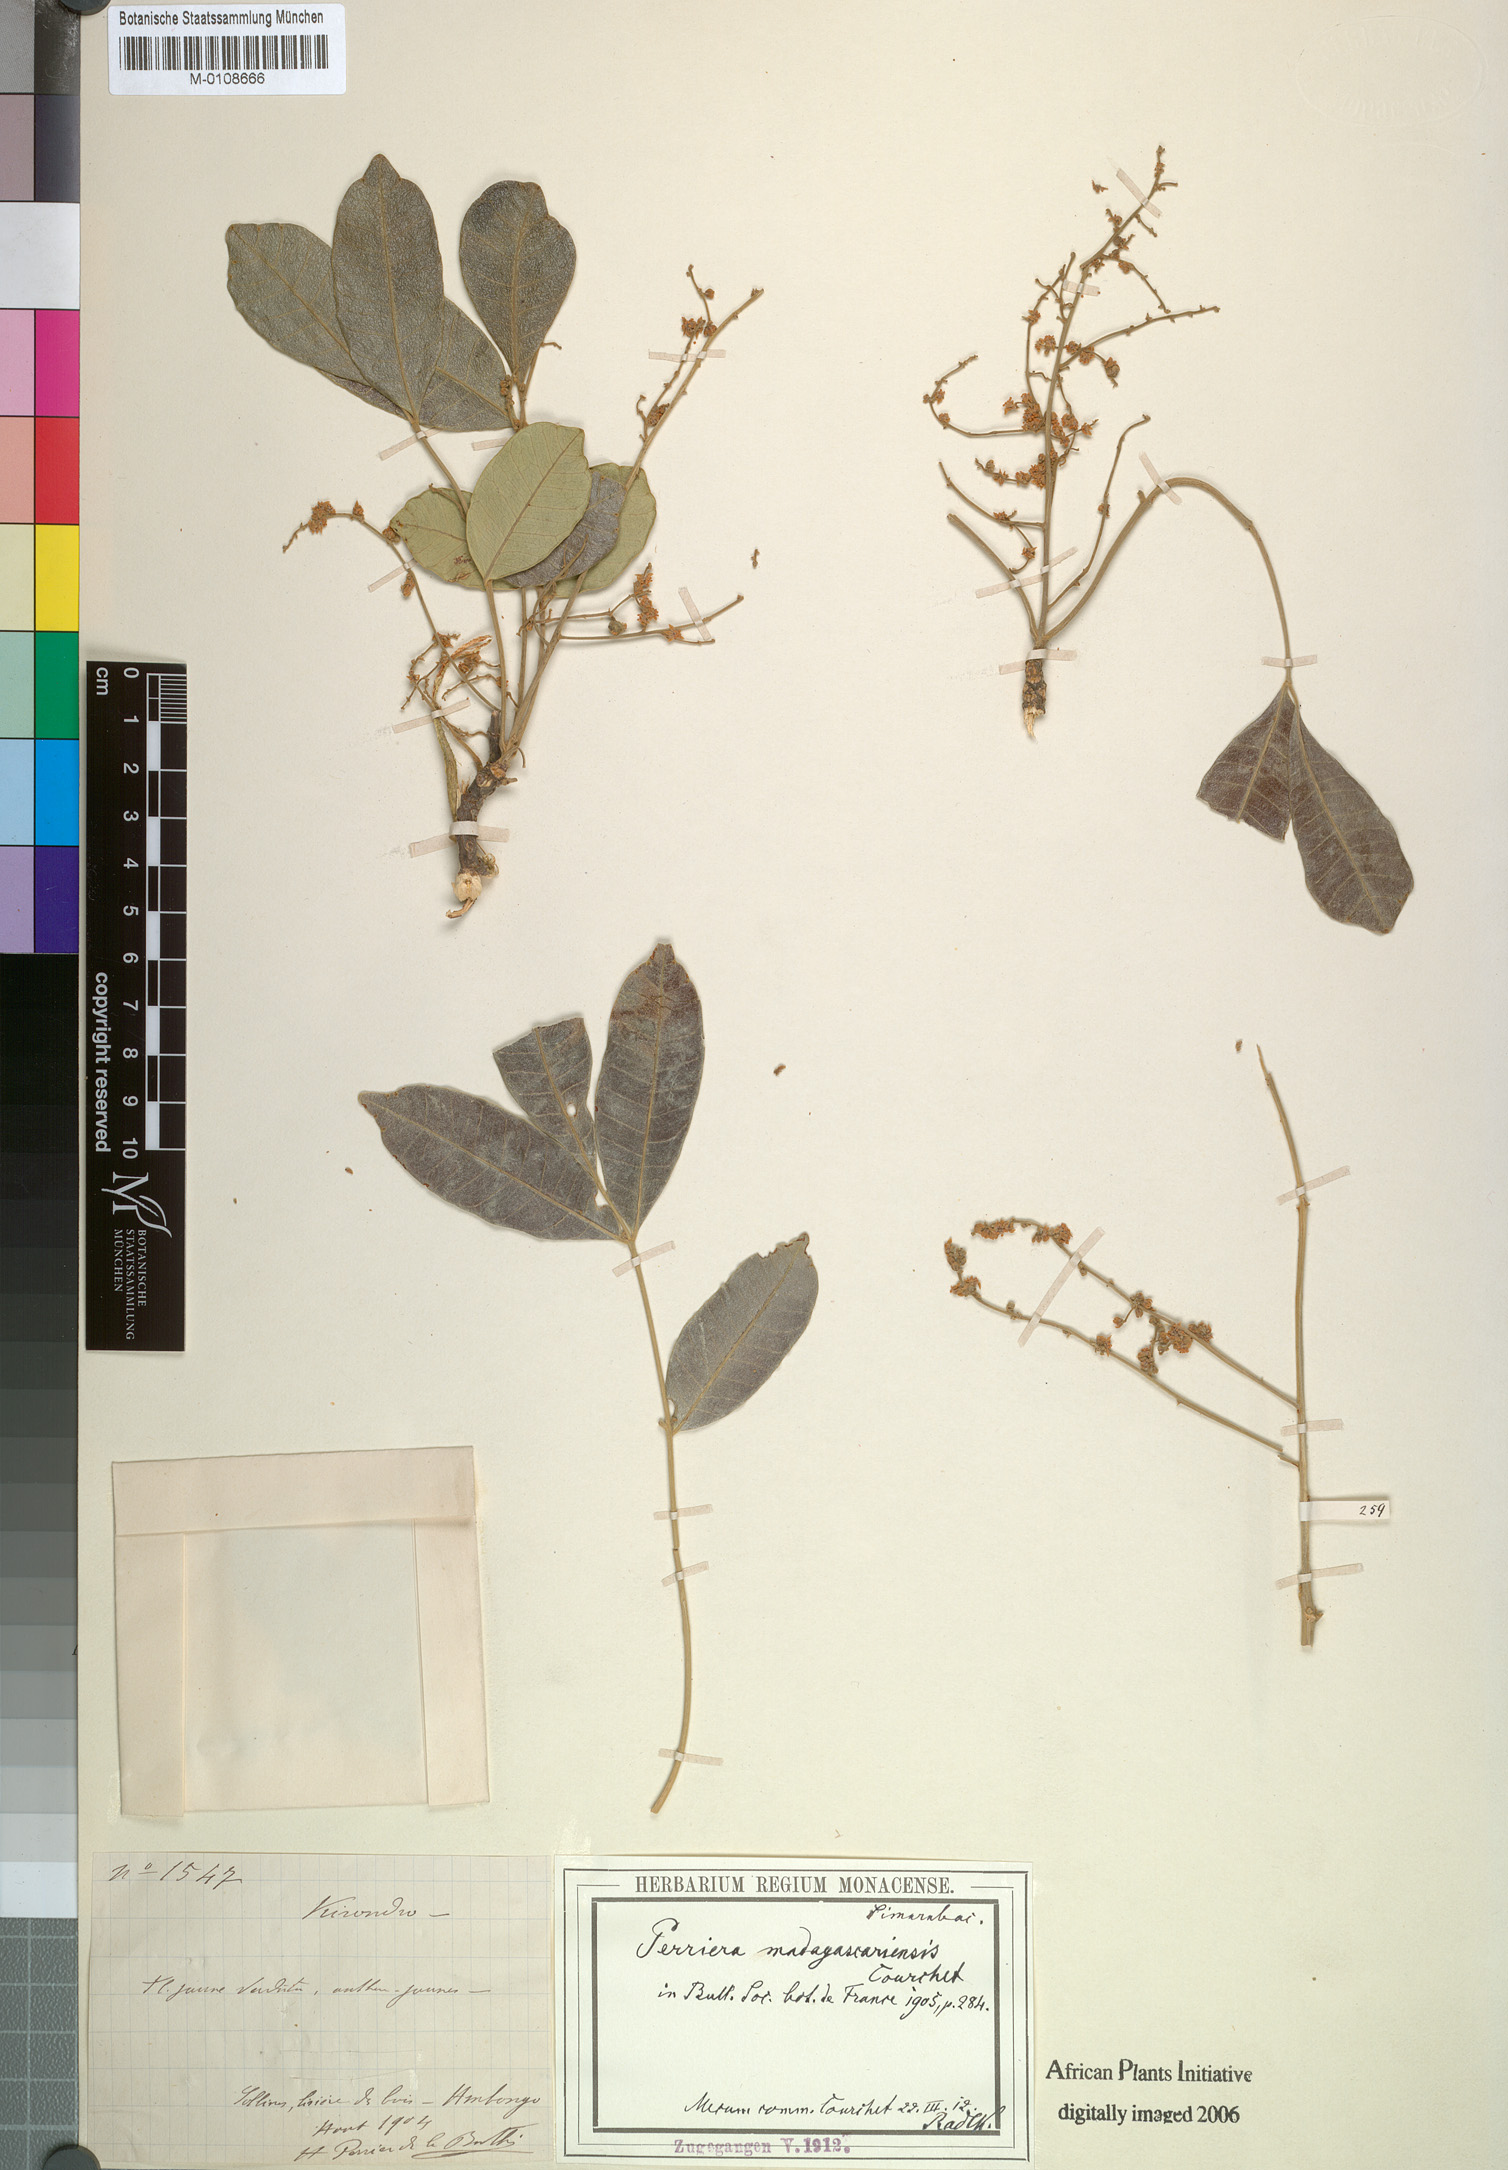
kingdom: Plantae
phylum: Tracheophyta
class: Magnoliopsida
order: Sapindales
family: Simaroubaceae
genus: Perriera
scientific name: Perriera madagascariensis
